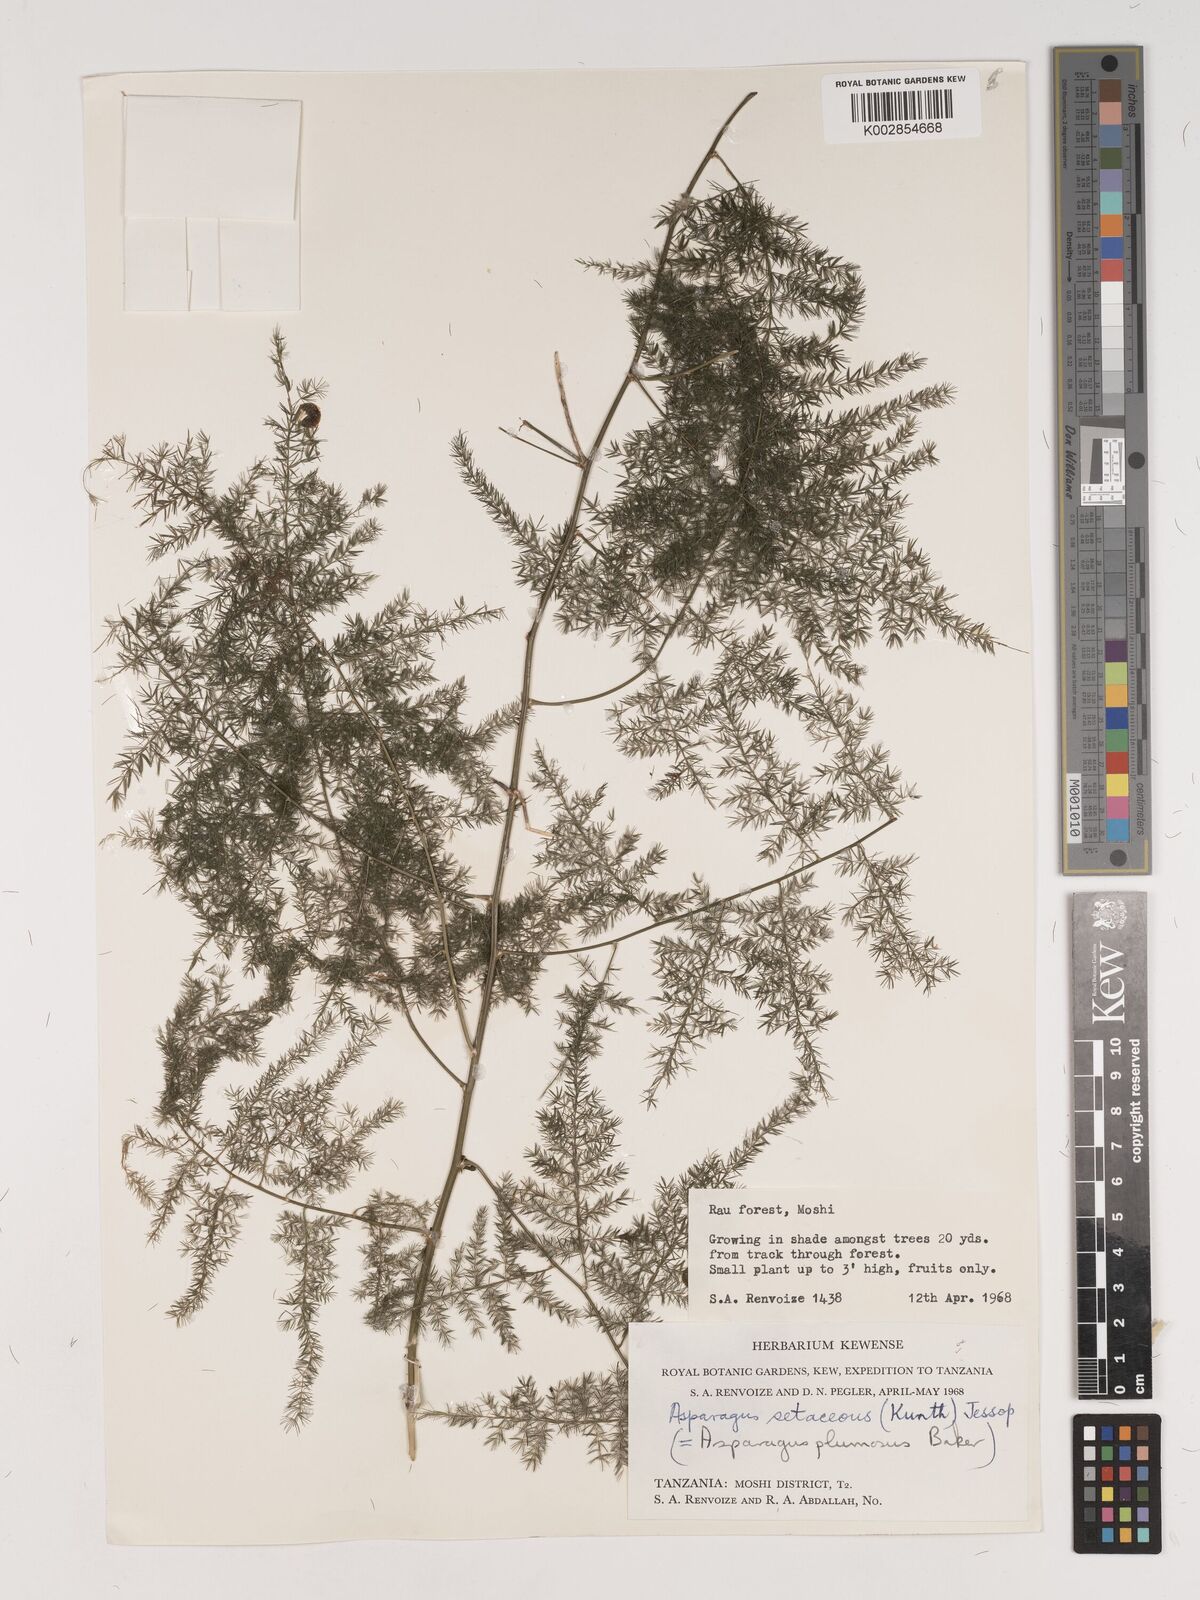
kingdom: Plantae
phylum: Tracheophyta
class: Liliopsida
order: Asparagales
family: Asparagaceae
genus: Asparagus
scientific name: Asparagus setaceus
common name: Common asparagus fern
